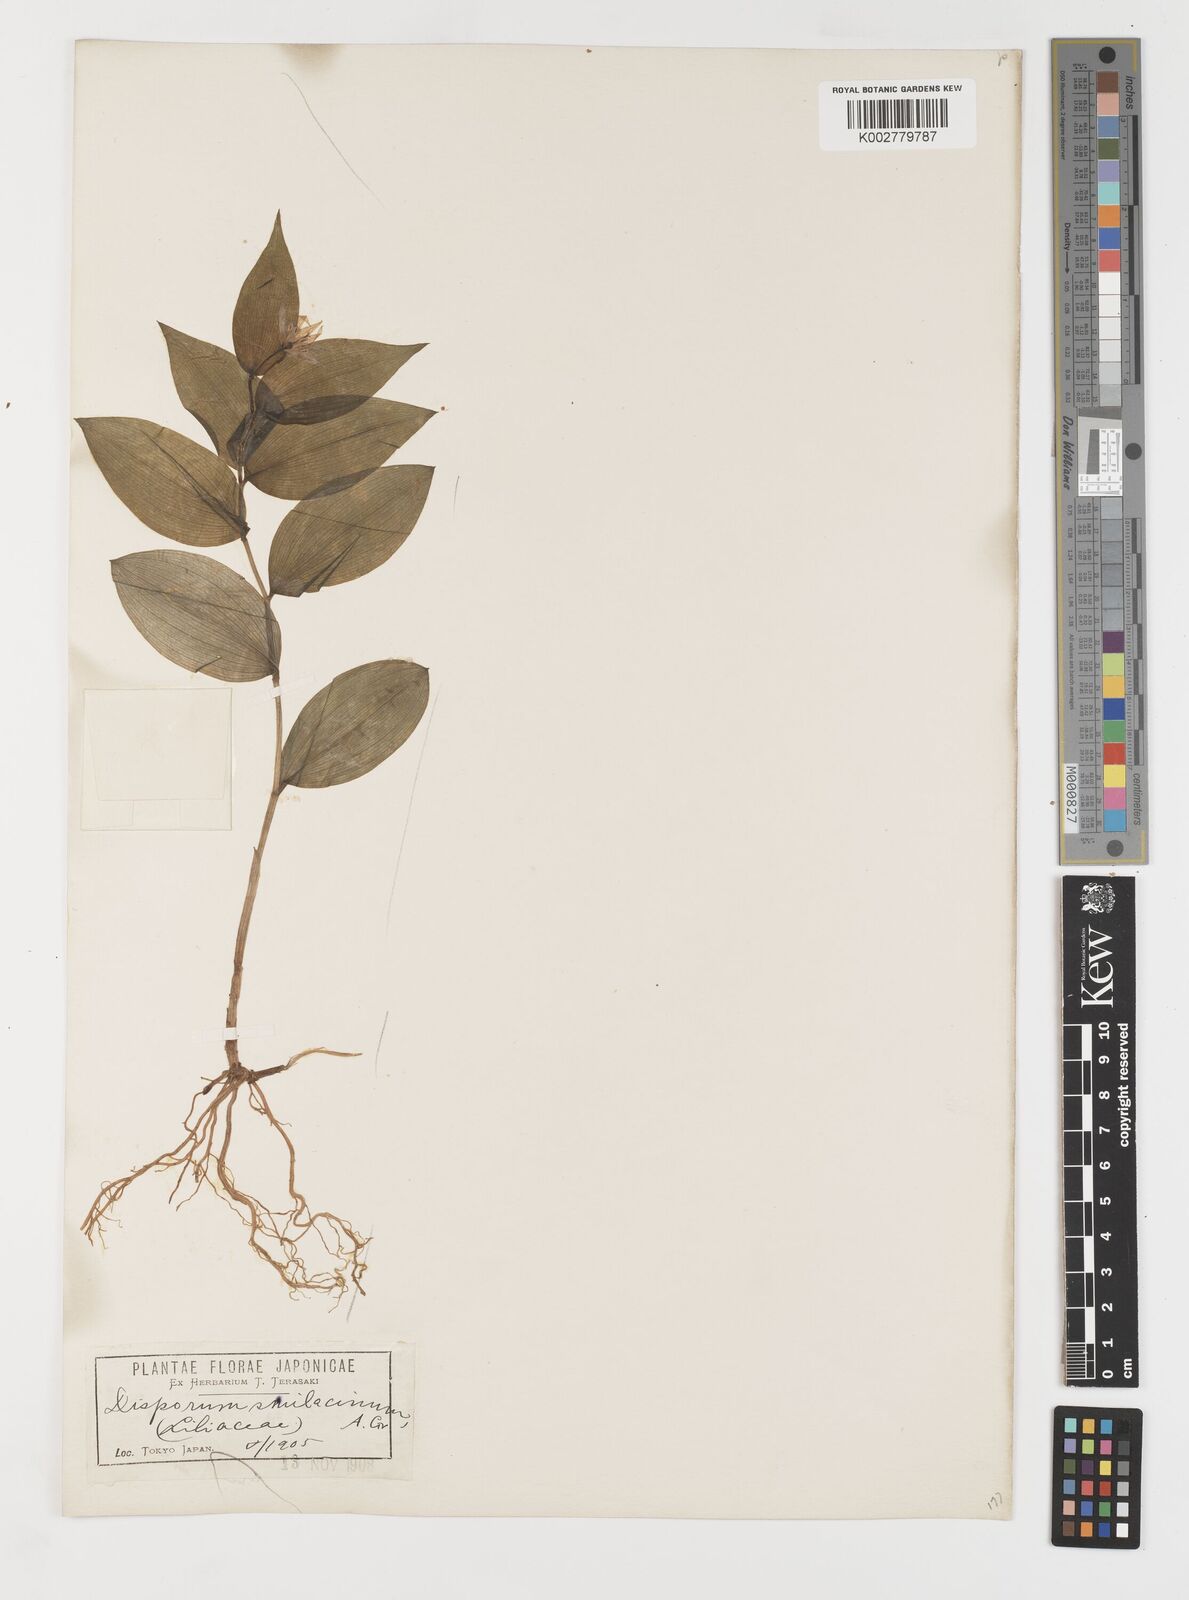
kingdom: Plantae
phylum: Tracheophyta
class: Liliopsida
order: Liliales
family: Colchicaceae
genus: Disporum
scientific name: Disporum smilacinum
